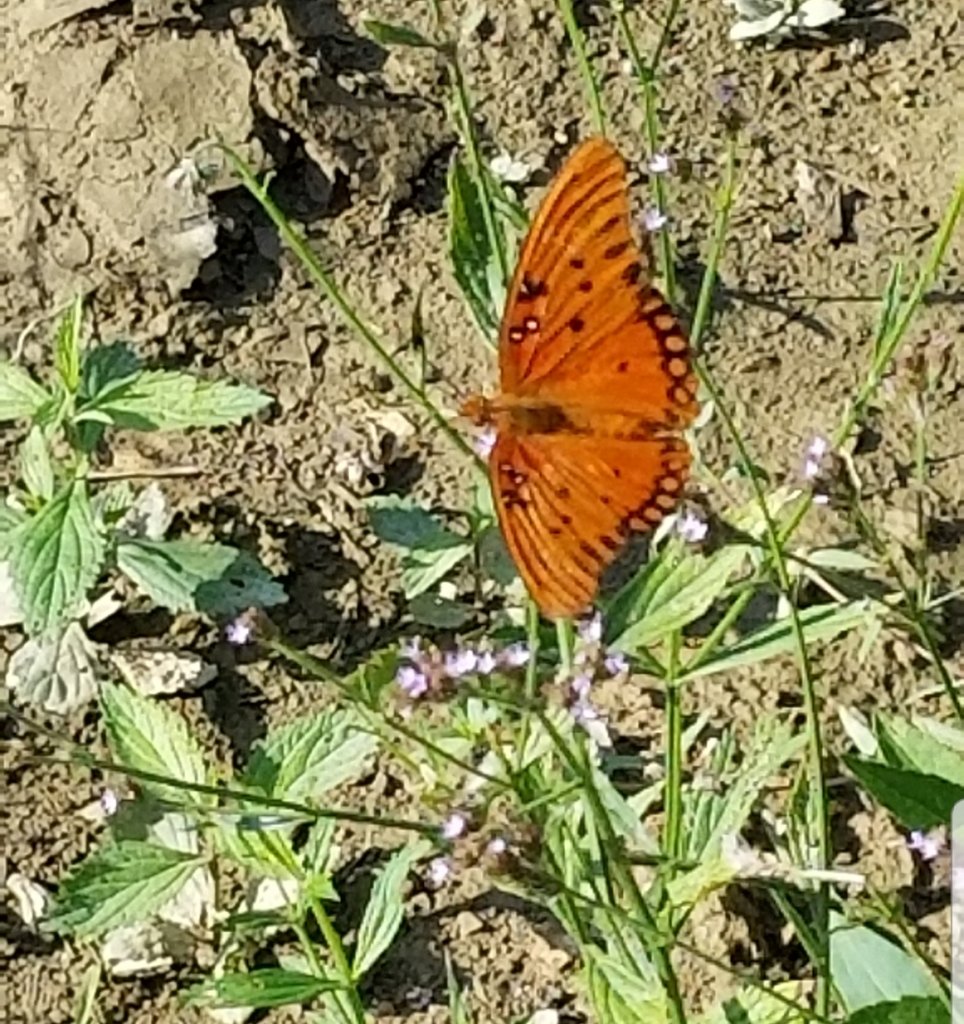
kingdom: Animalia
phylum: Arthropoda
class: Insecta
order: Lepidoptera
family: Nymphalidae
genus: Dione
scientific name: Dione vanillae
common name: Gulf Fritillary
